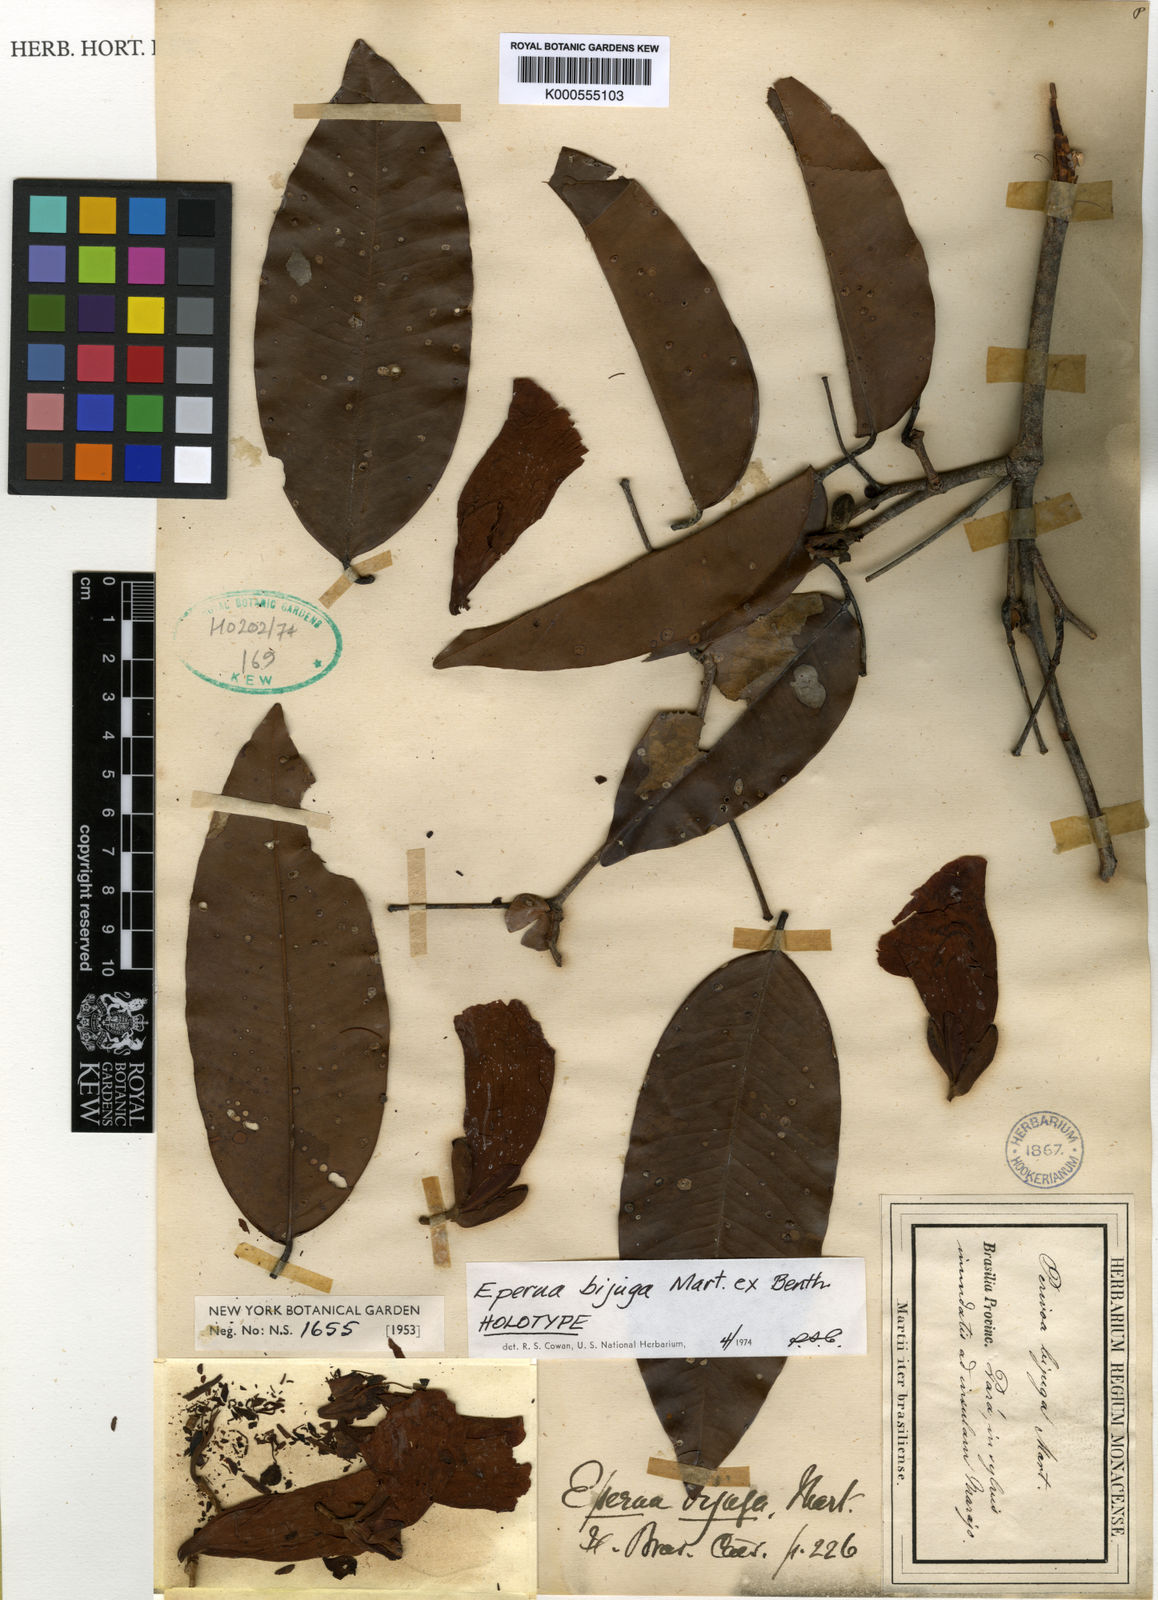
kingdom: Plantae
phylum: Tracheophyta
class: Magnoliopsida
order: Fabales
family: Fabaceae
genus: Eperua
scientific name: Eperua bijuga
